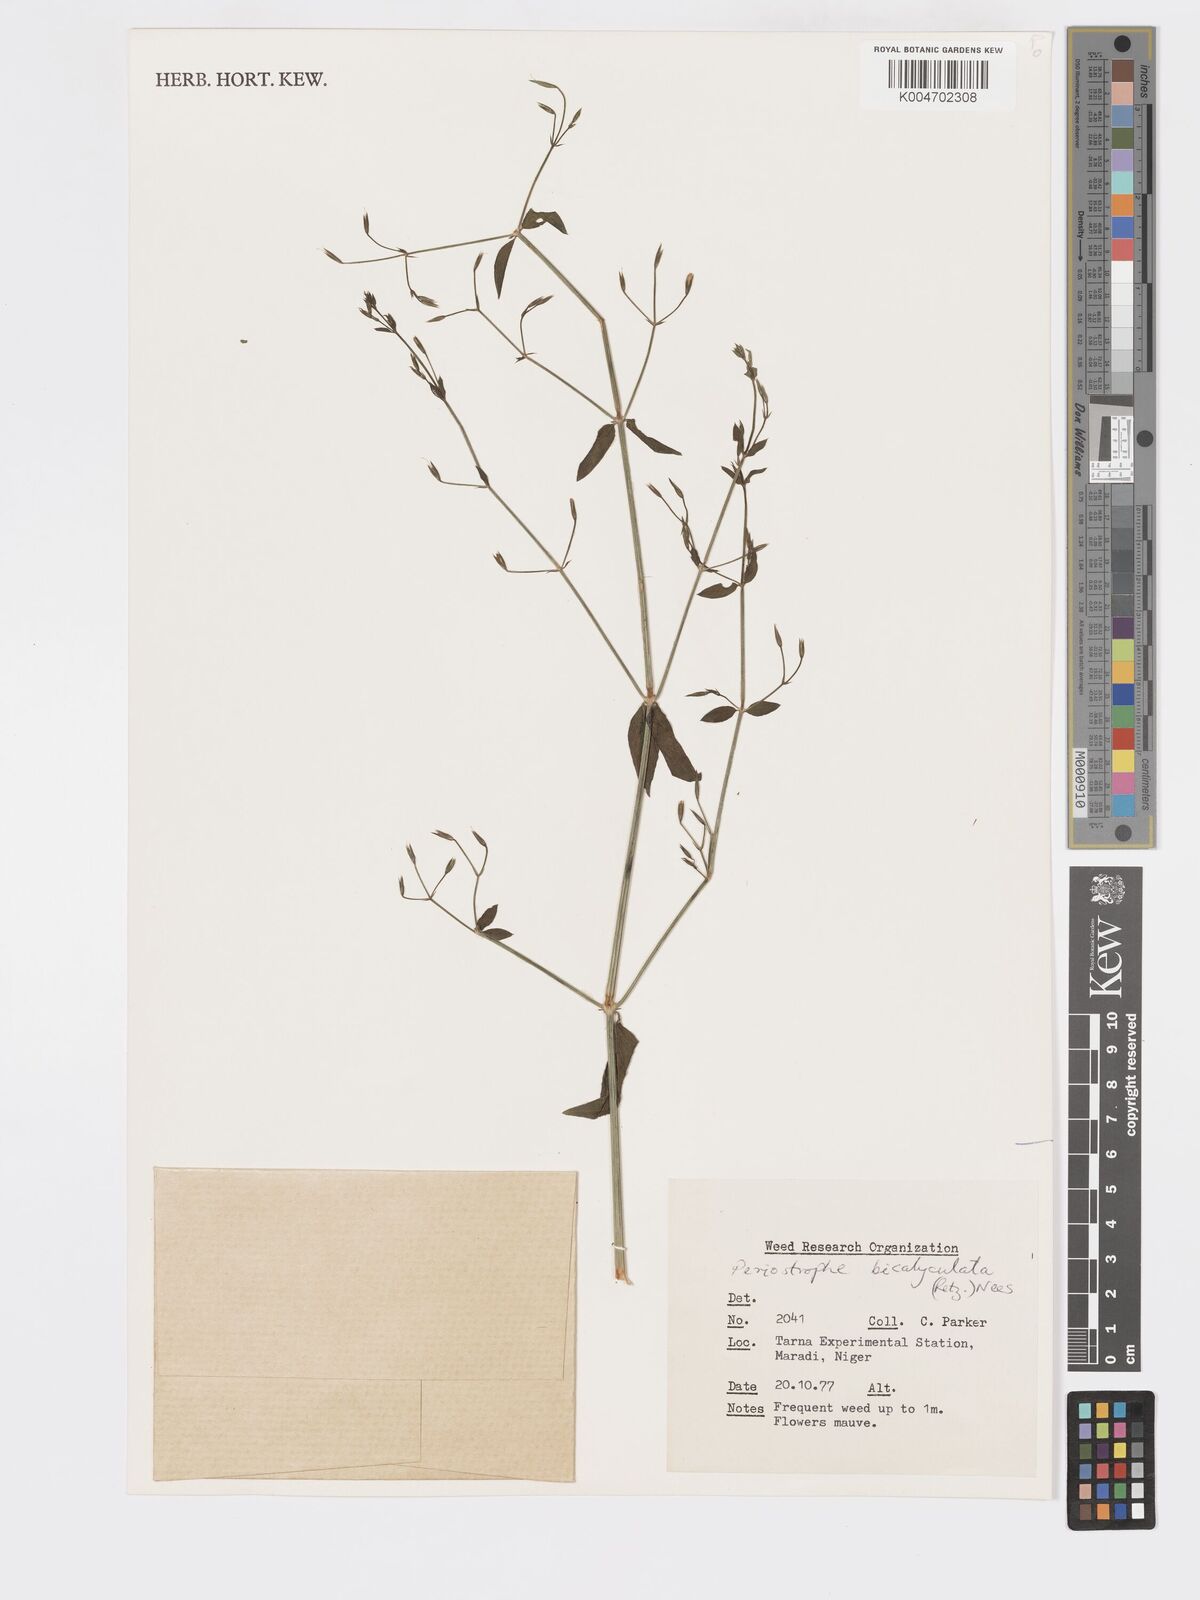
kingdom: Plantae
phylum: Tracheophyta
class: Magnoliopsida
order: Lamiales
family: Acanthaceae
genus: Dicliptera
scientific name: Dicliptera paniculata
